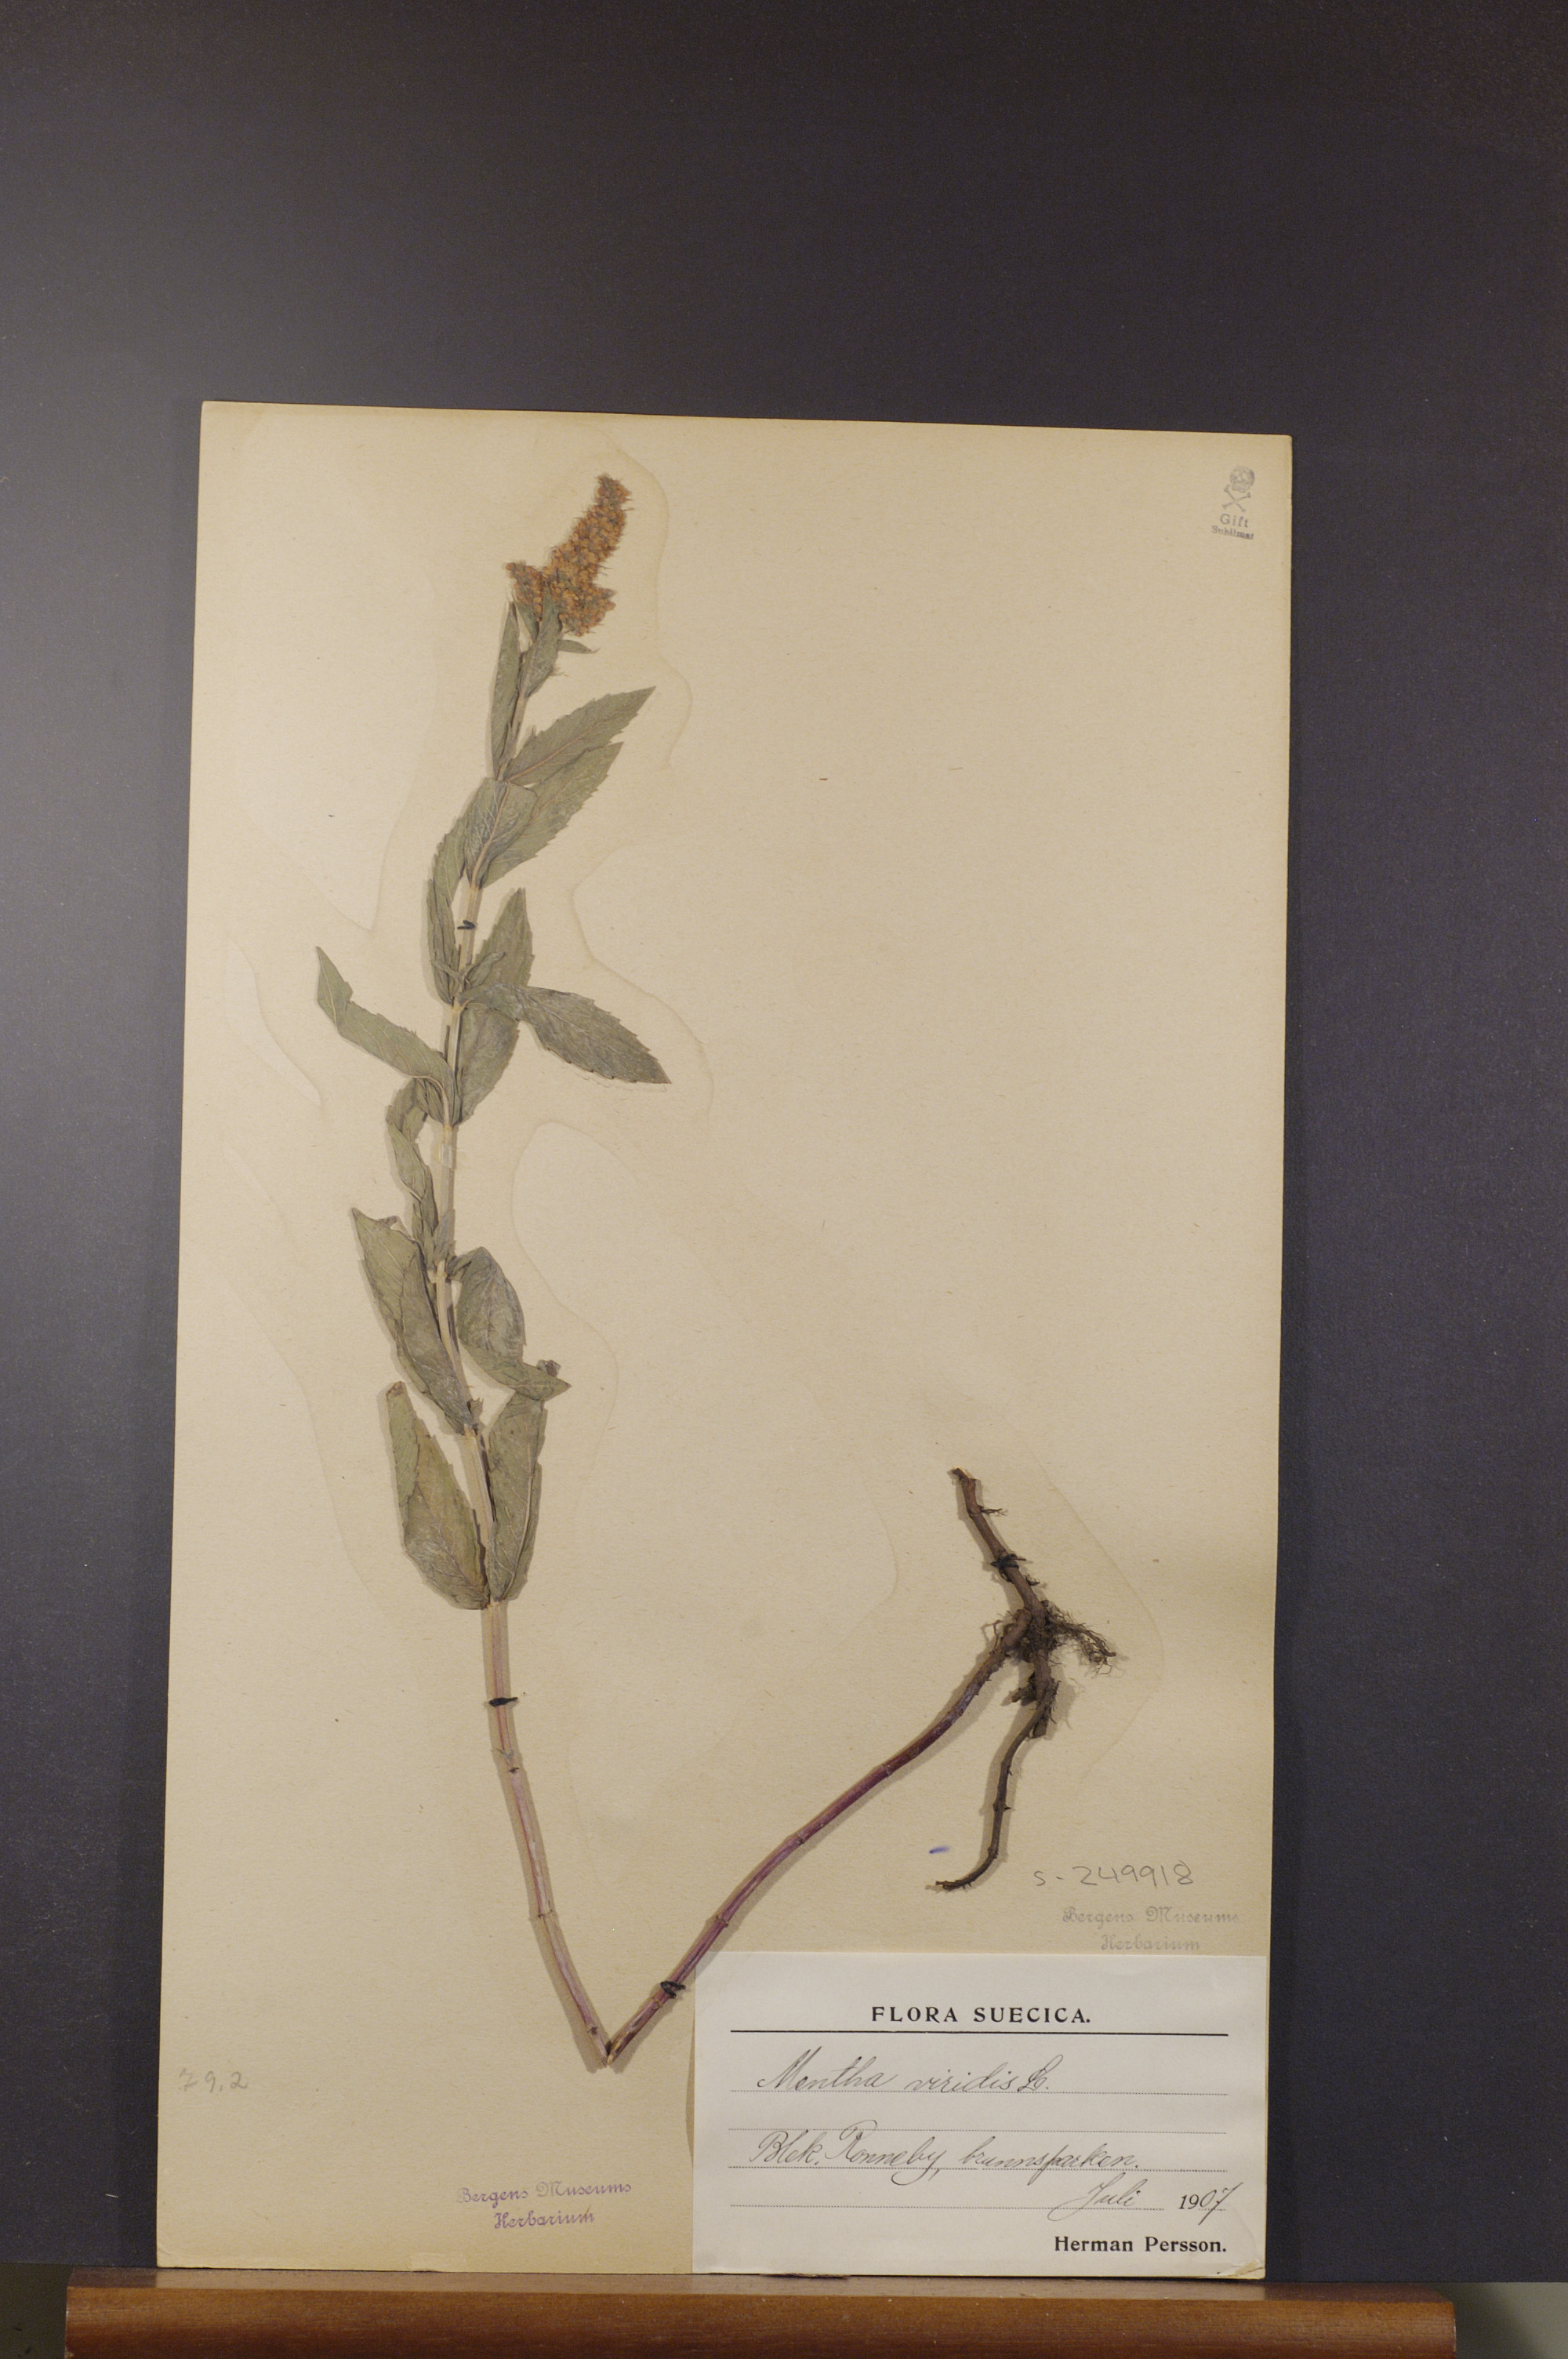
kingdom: Plantae
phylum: Tracheophyta
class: Magnoliopsida
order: Lamiales
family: Lamiaceae
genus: Mentha
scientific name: Mentha spicata
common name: Spearmint
